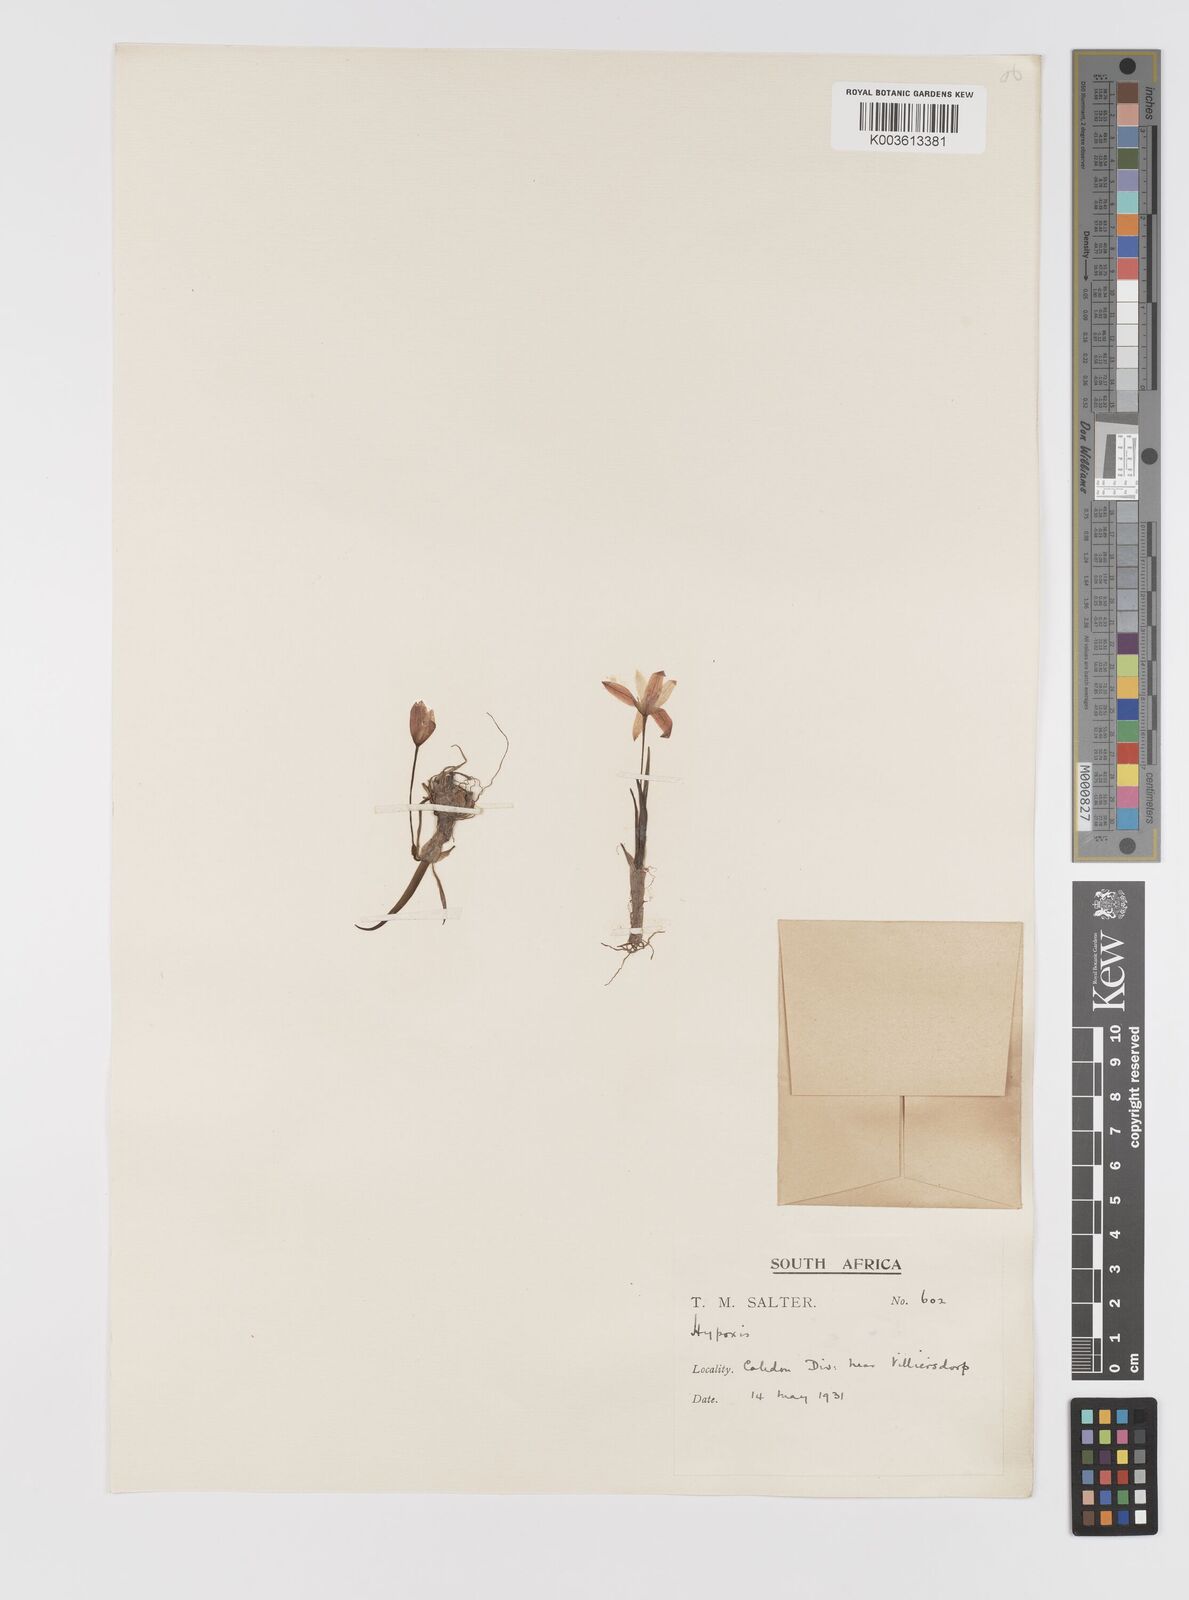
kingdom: Plantae
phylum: Tracheophyta
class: Liliopsida
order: Asparagales
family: Hypoxidaceae
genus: Pauridia
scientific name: Pauridia affinis
